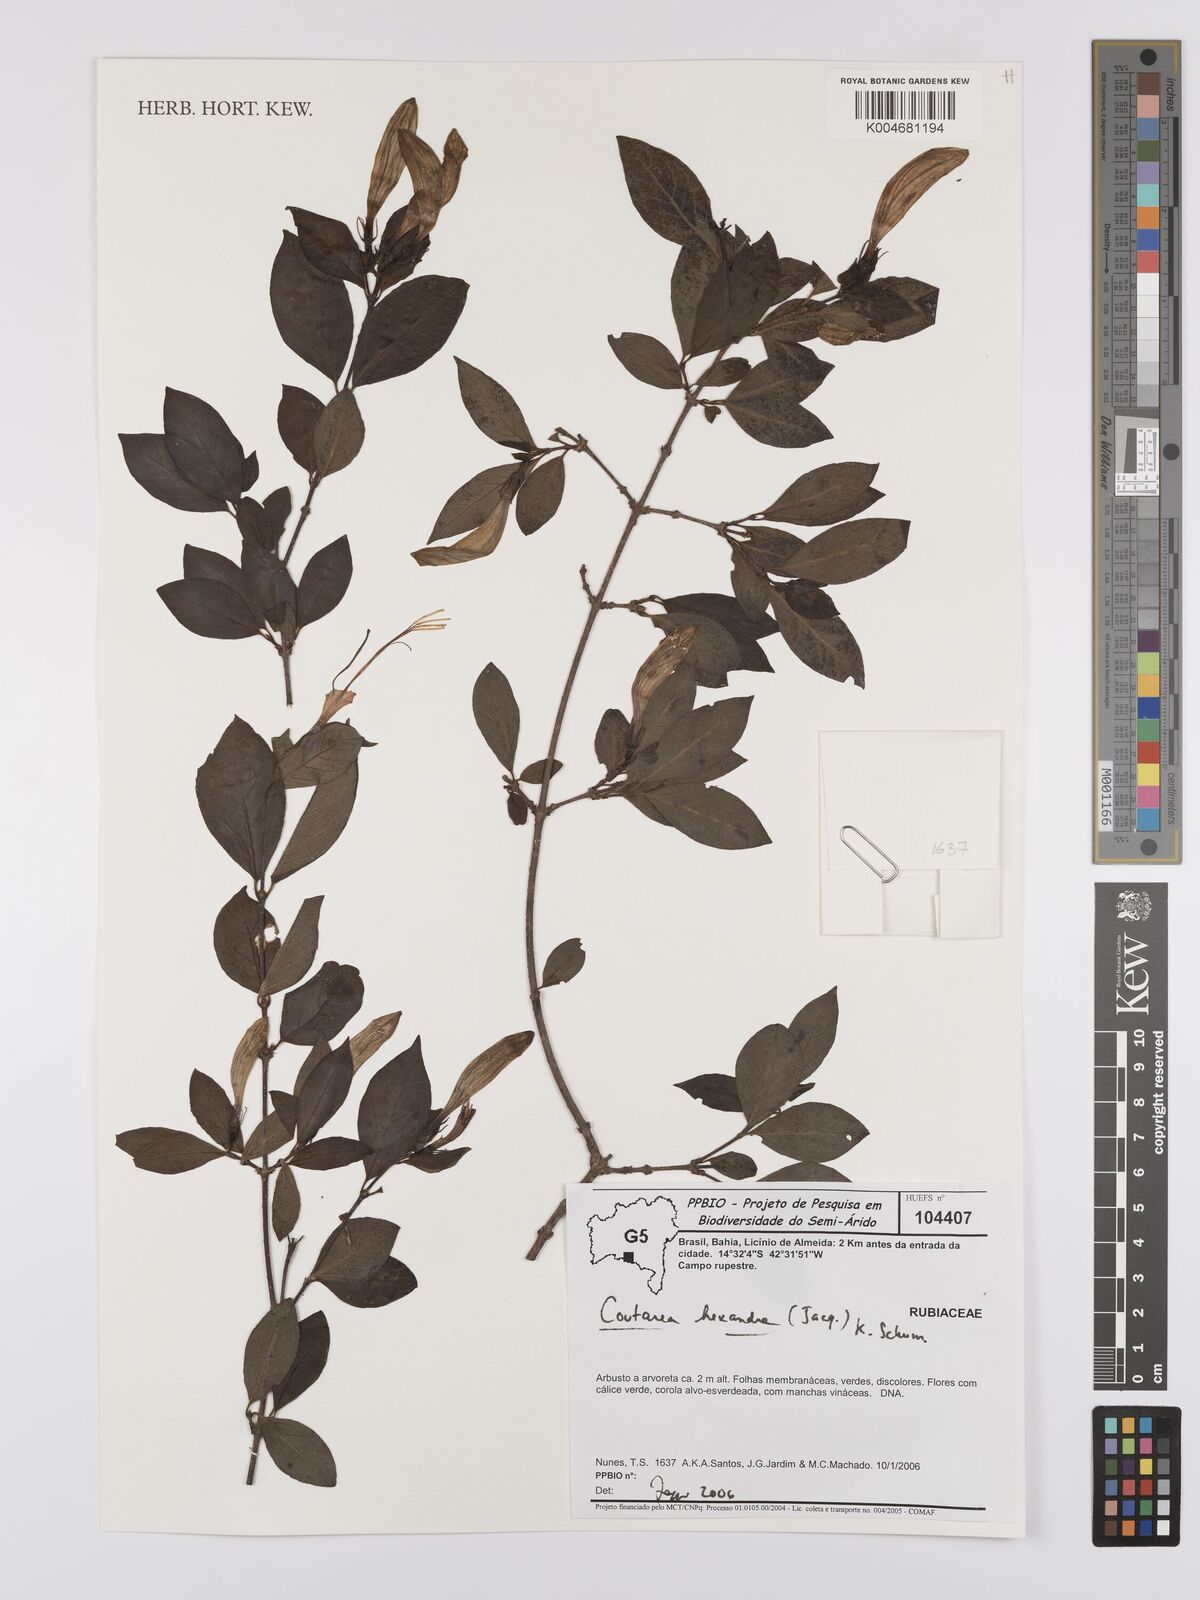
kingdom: Plantae
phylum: Tracheophyta
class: Magnoliopsida
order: Gentianales
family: Rubiaceae
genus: Coutarea
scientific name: Coutarea hexandra
